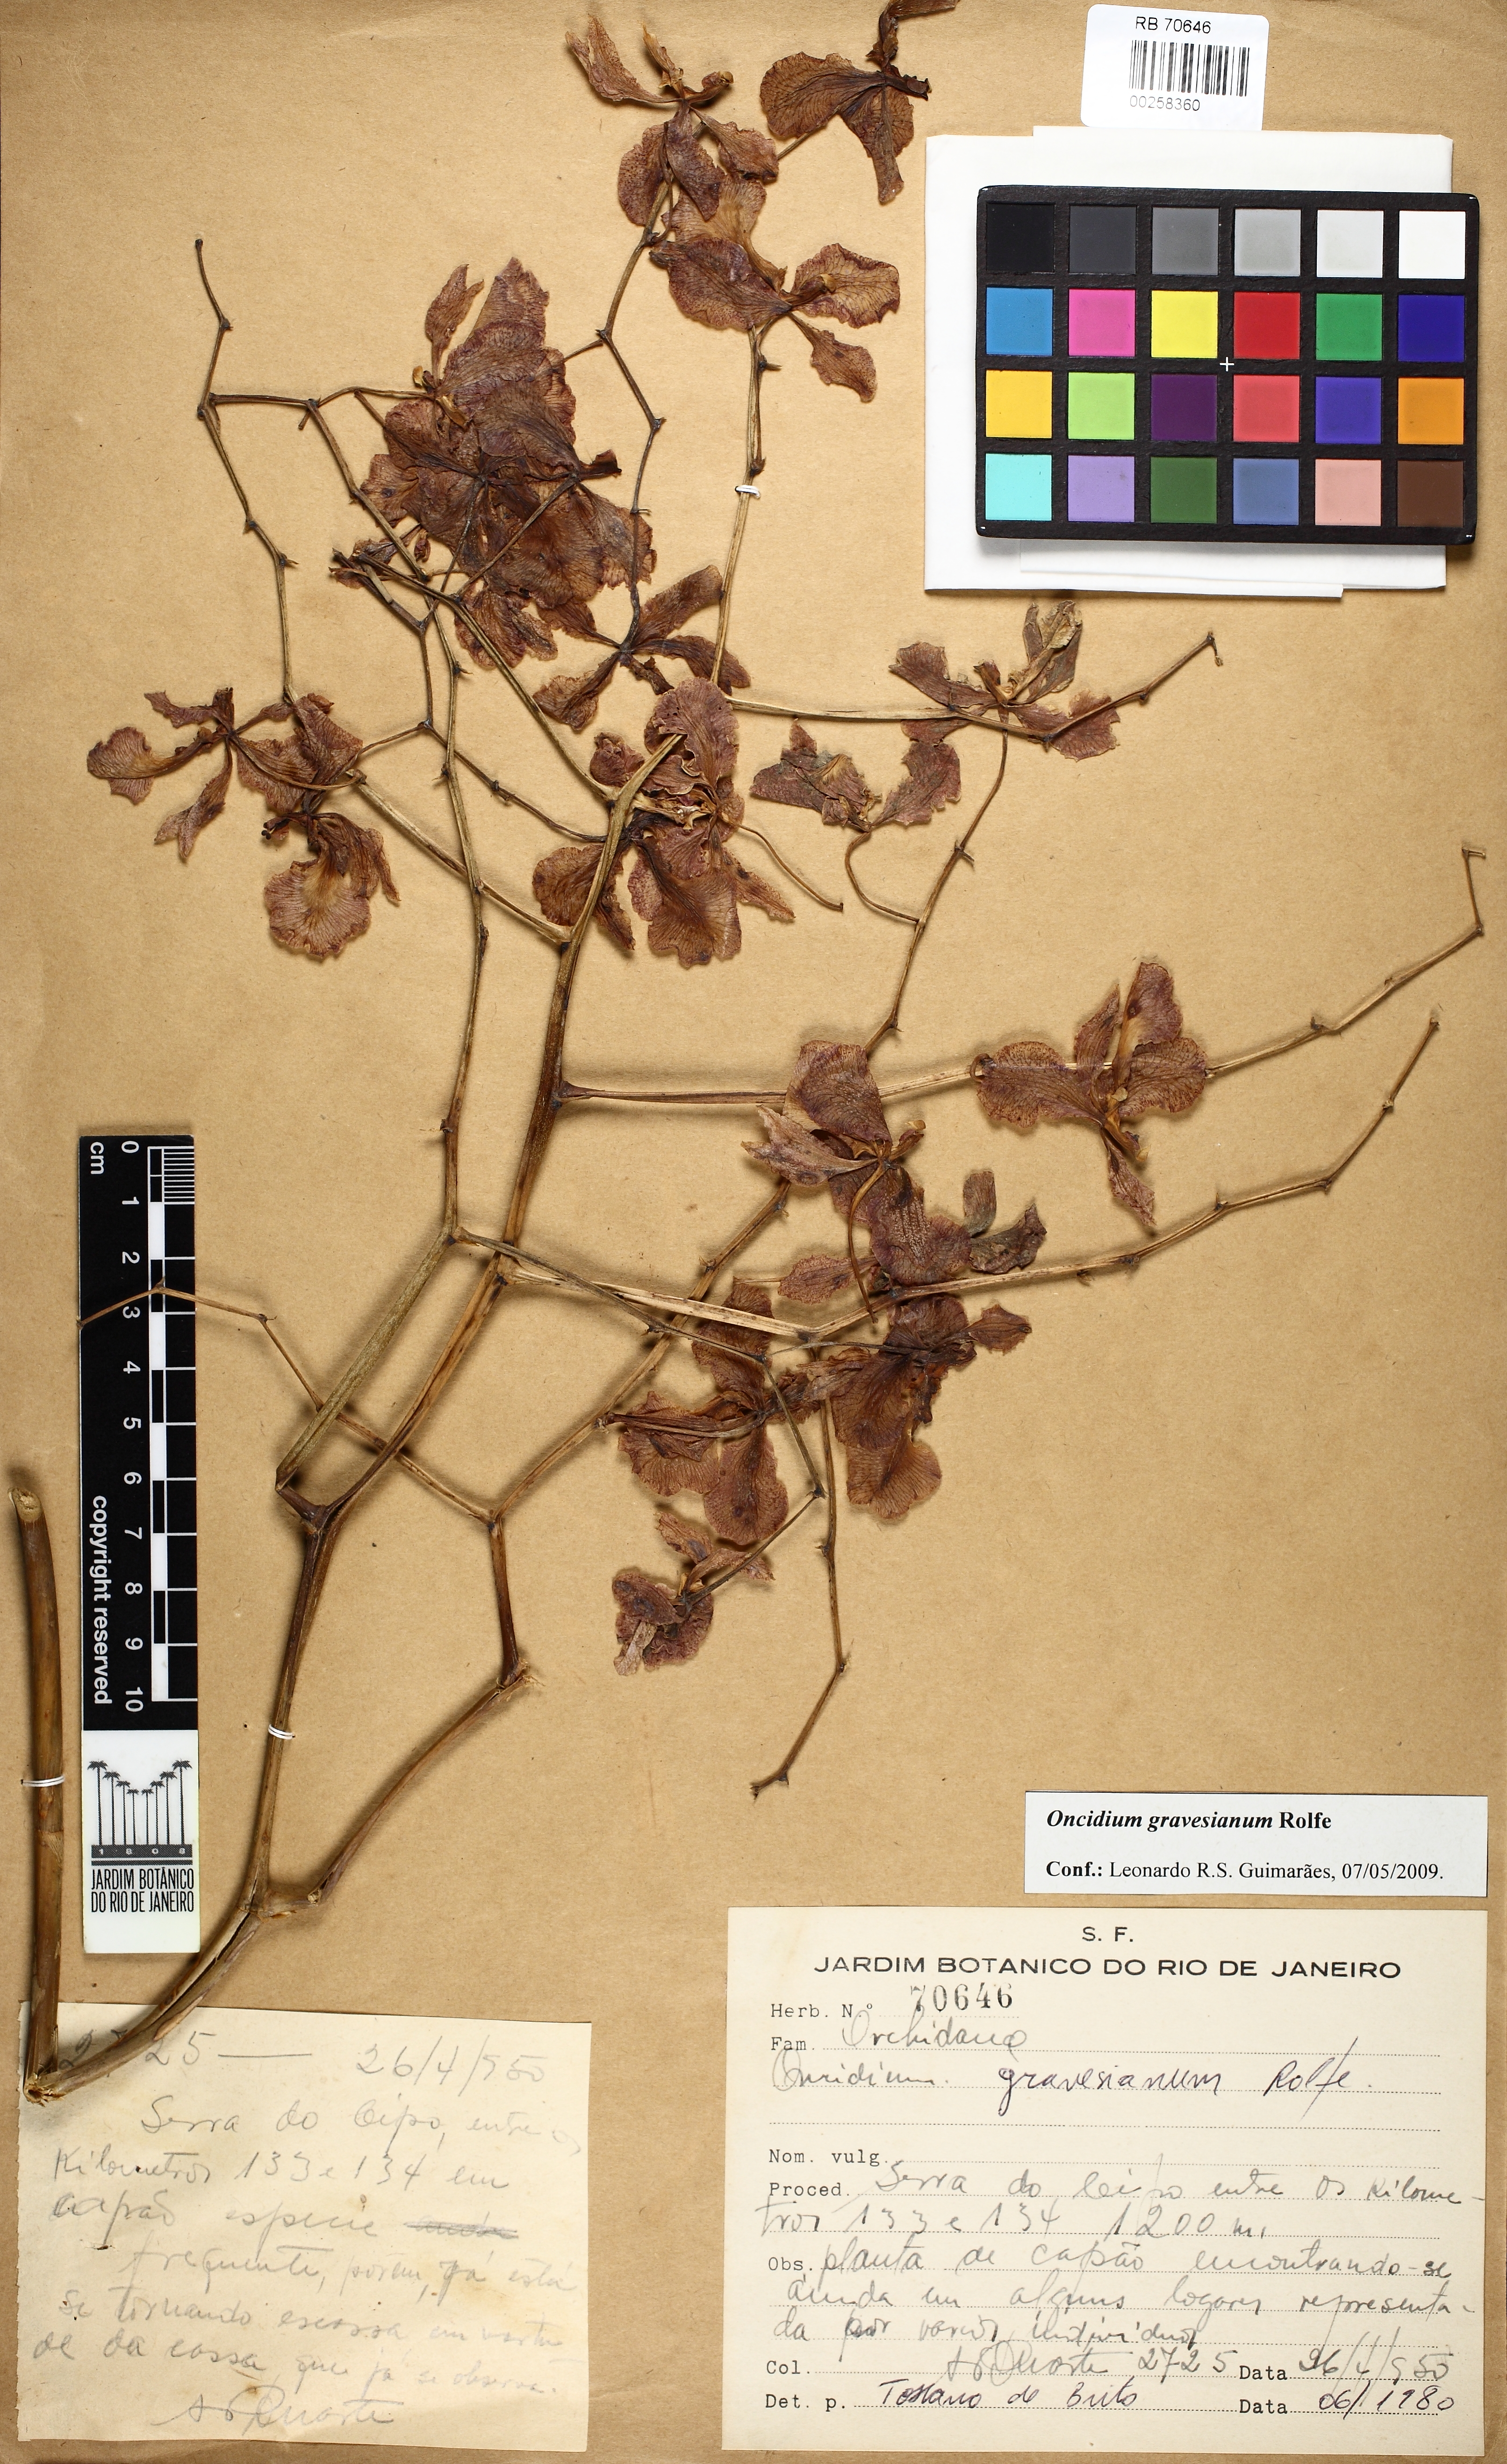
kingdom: Plantae
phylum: Tracheophyta
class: Liliopsida
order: Asparagales
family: Orchidaceae
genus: Gomesa
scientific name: Gomesa praetexta
